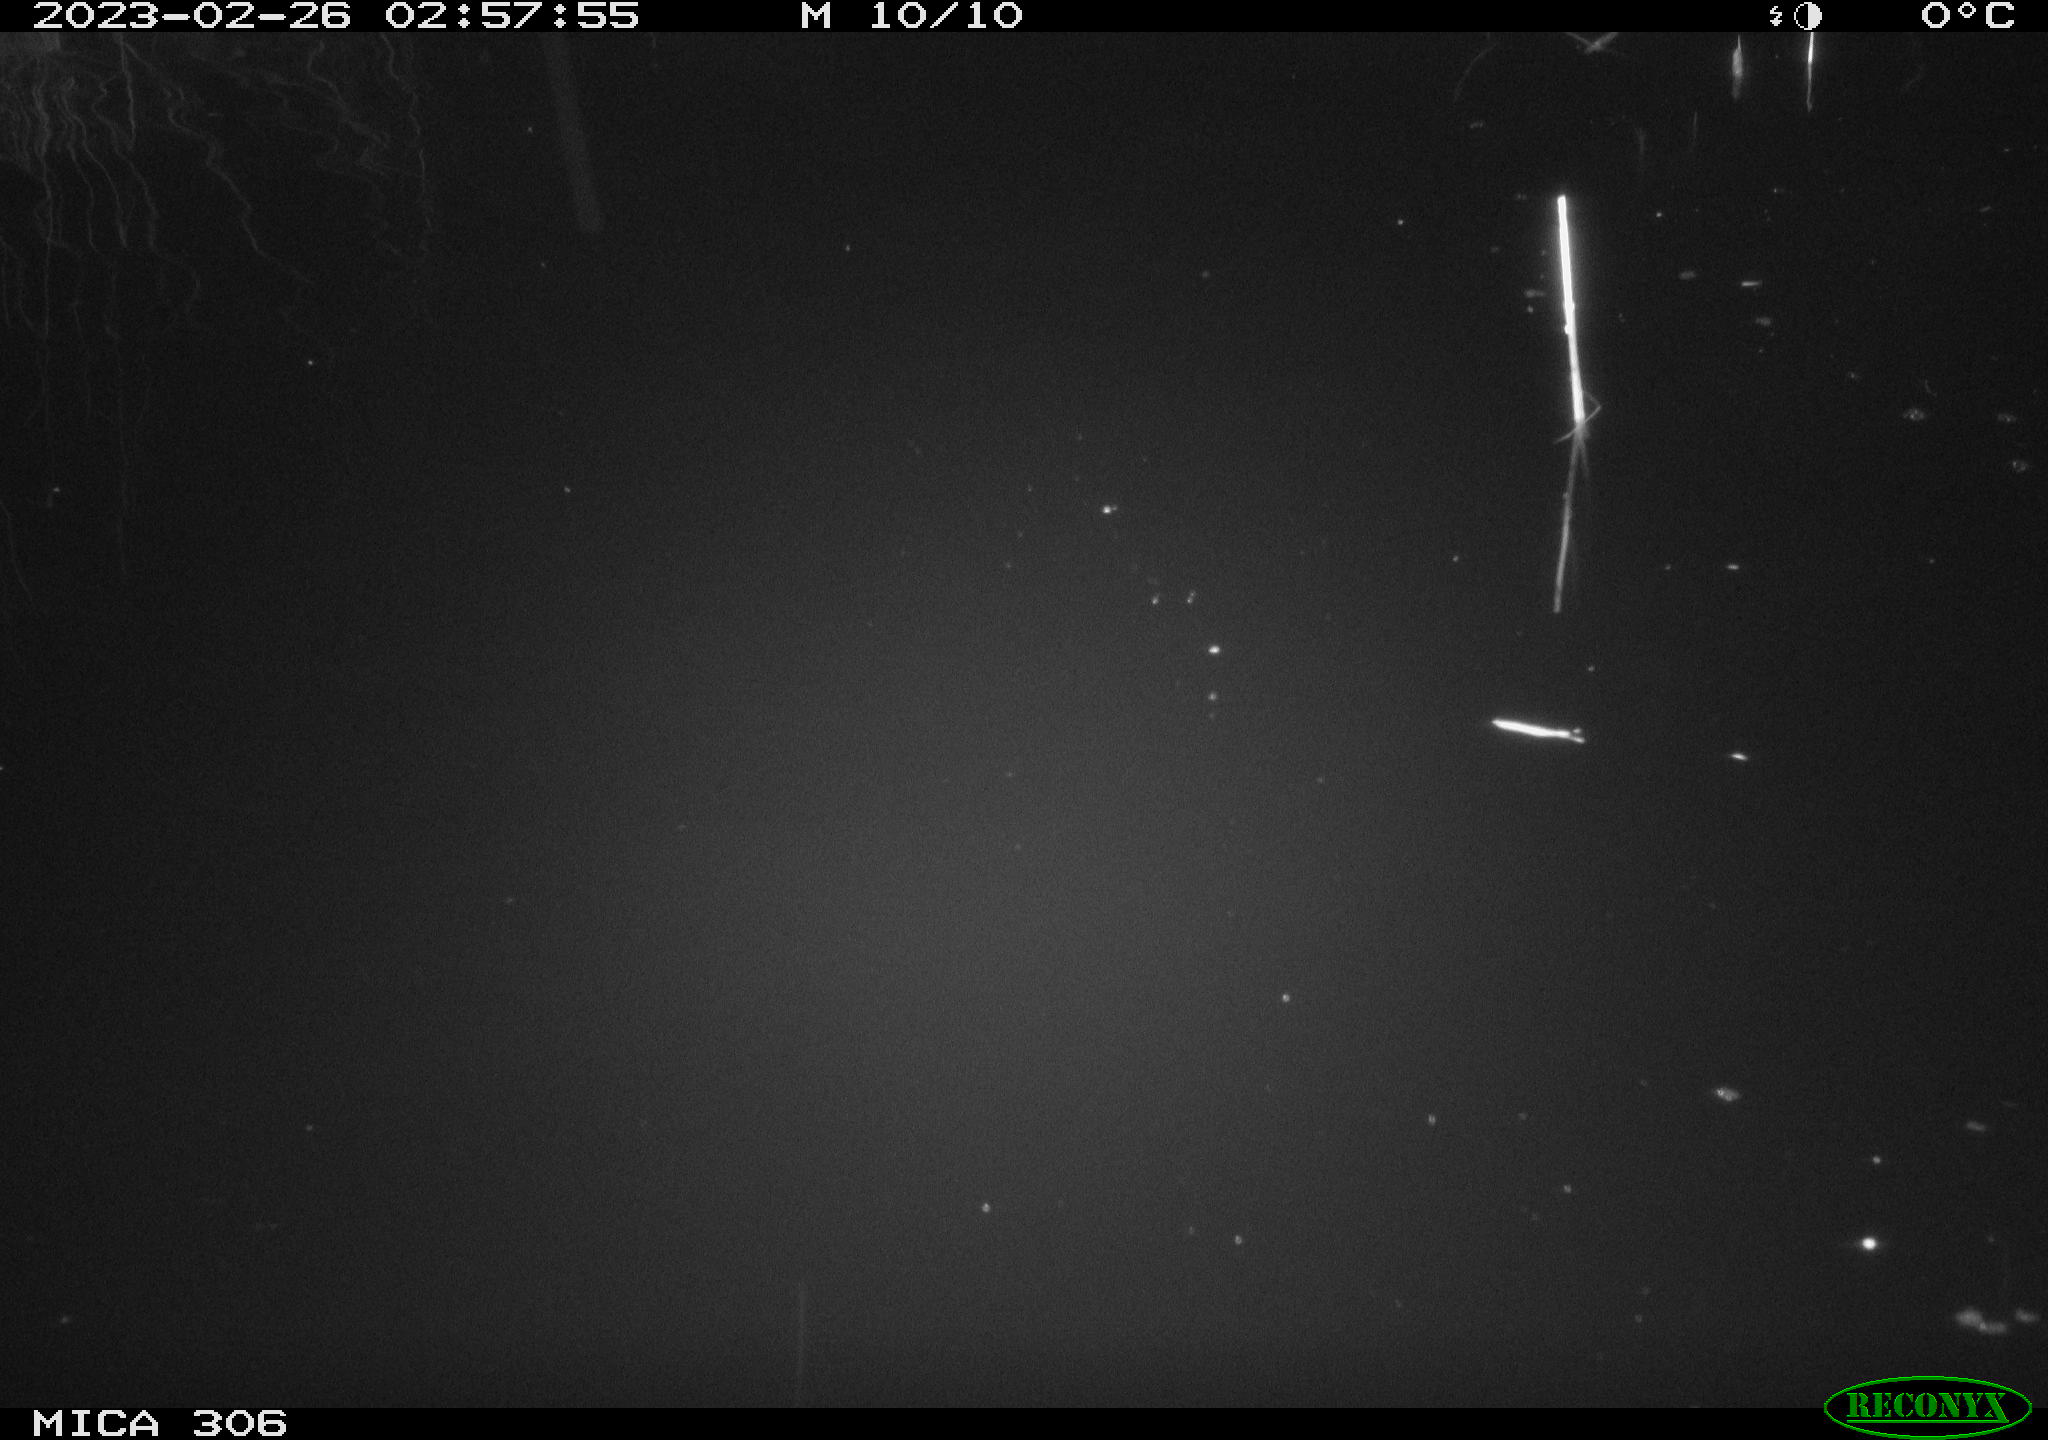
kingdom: Animalia
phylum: Chordata
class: Mammalia
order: Rodentia
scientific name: Rodentia
